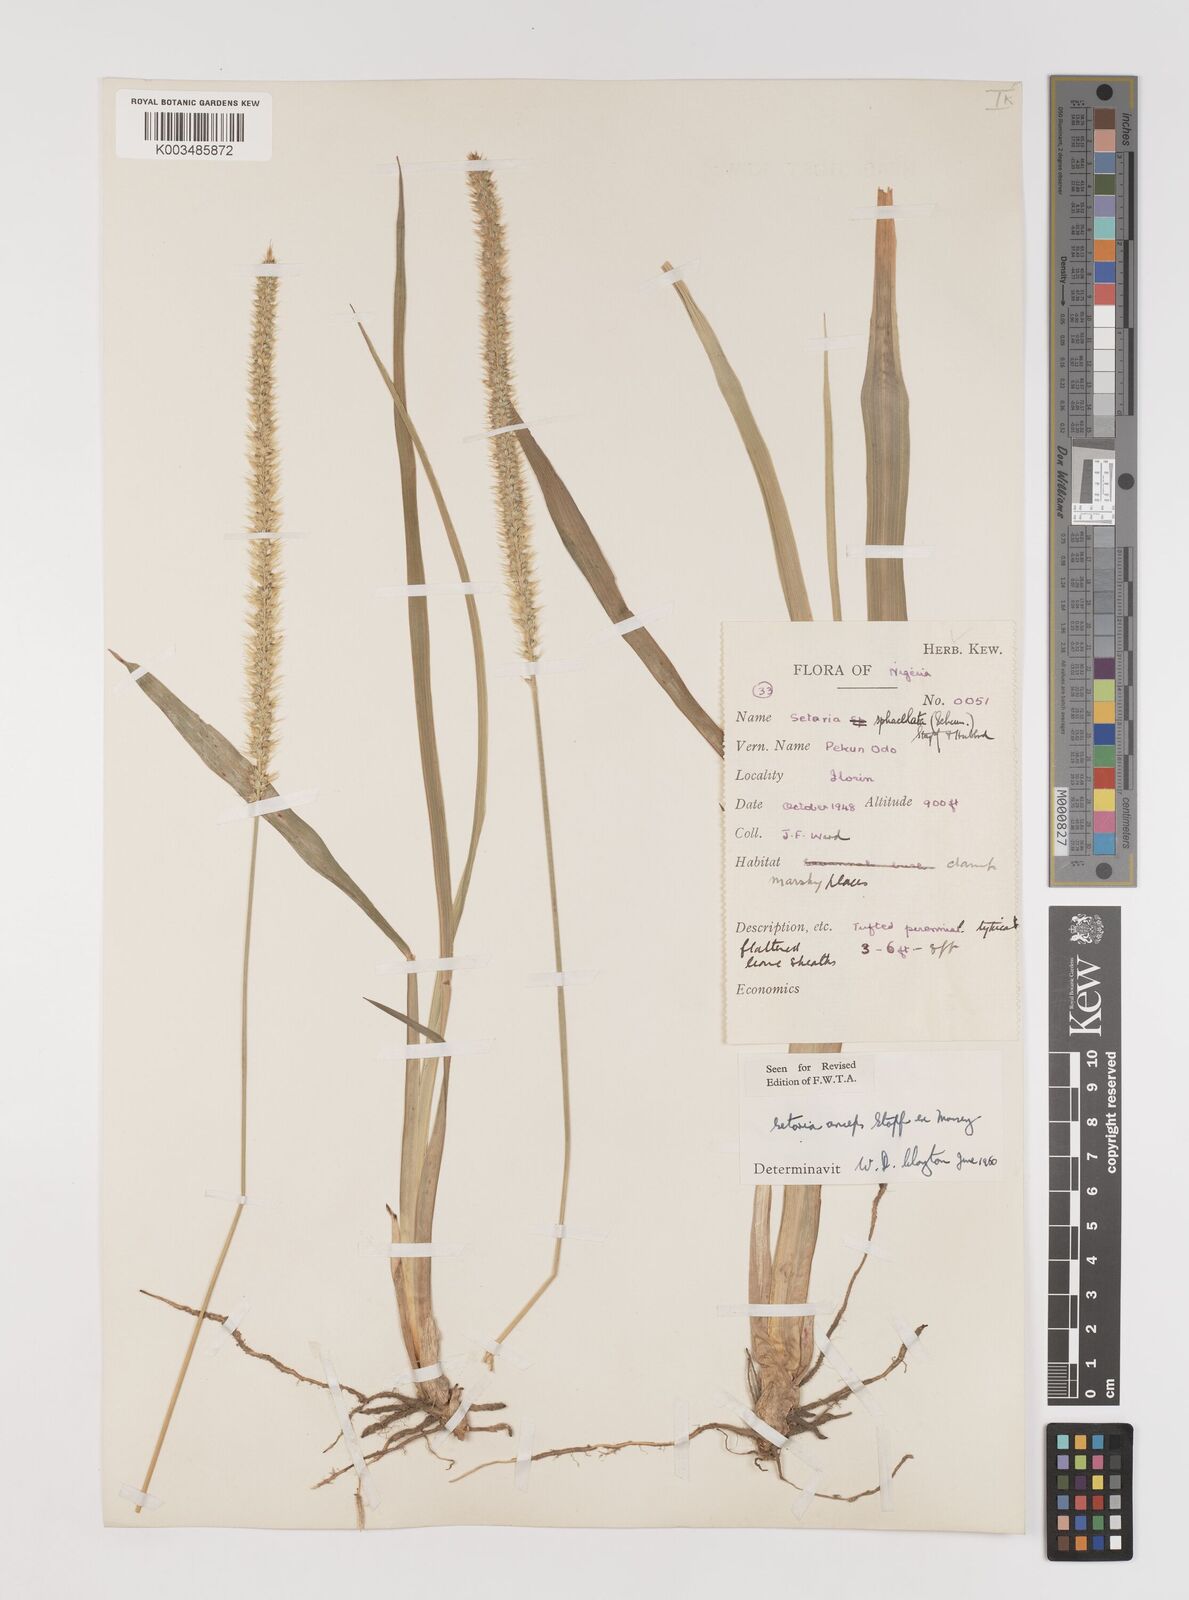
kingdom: Plantae
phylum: Tracheophyta
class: Liliopsida
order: Poales
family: Poaceae
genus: Setaria
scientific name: Setaria sphacelata
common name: African bristlegrass
